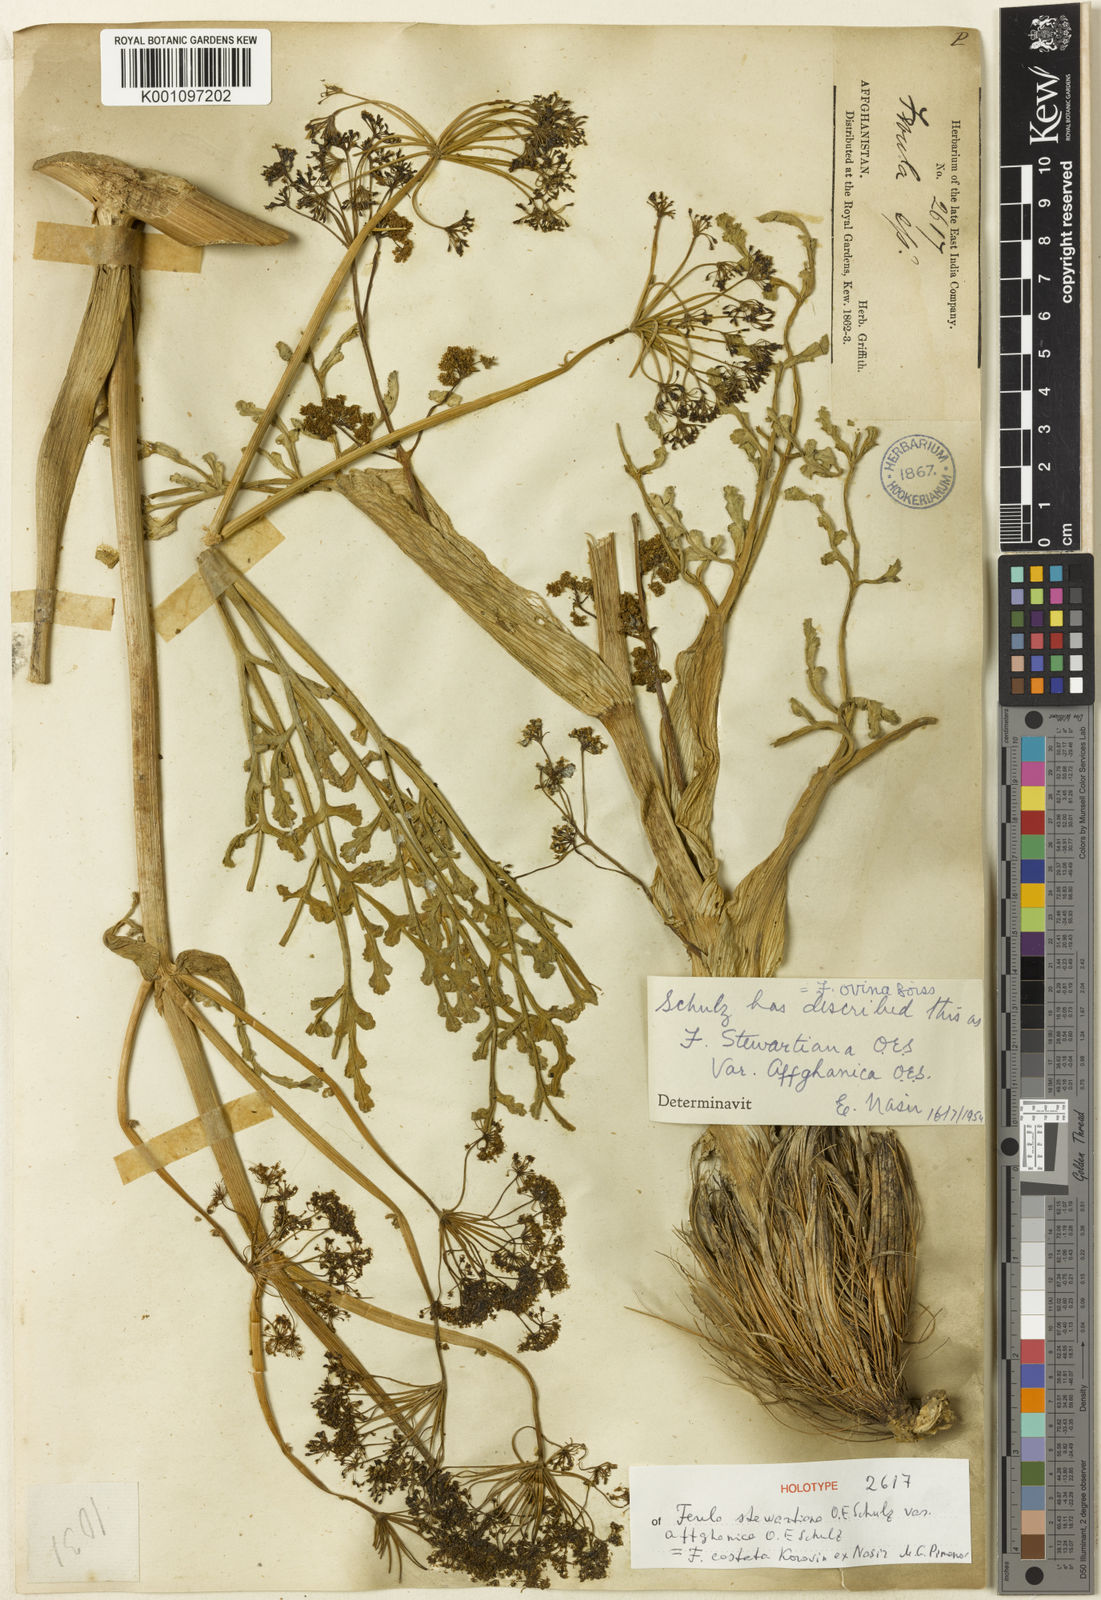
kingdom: Plantae
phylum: Tracheophyta
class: Magnoliopsida
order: Apiales
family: Apiaceae
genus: Ferula
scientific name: Ferula costata
